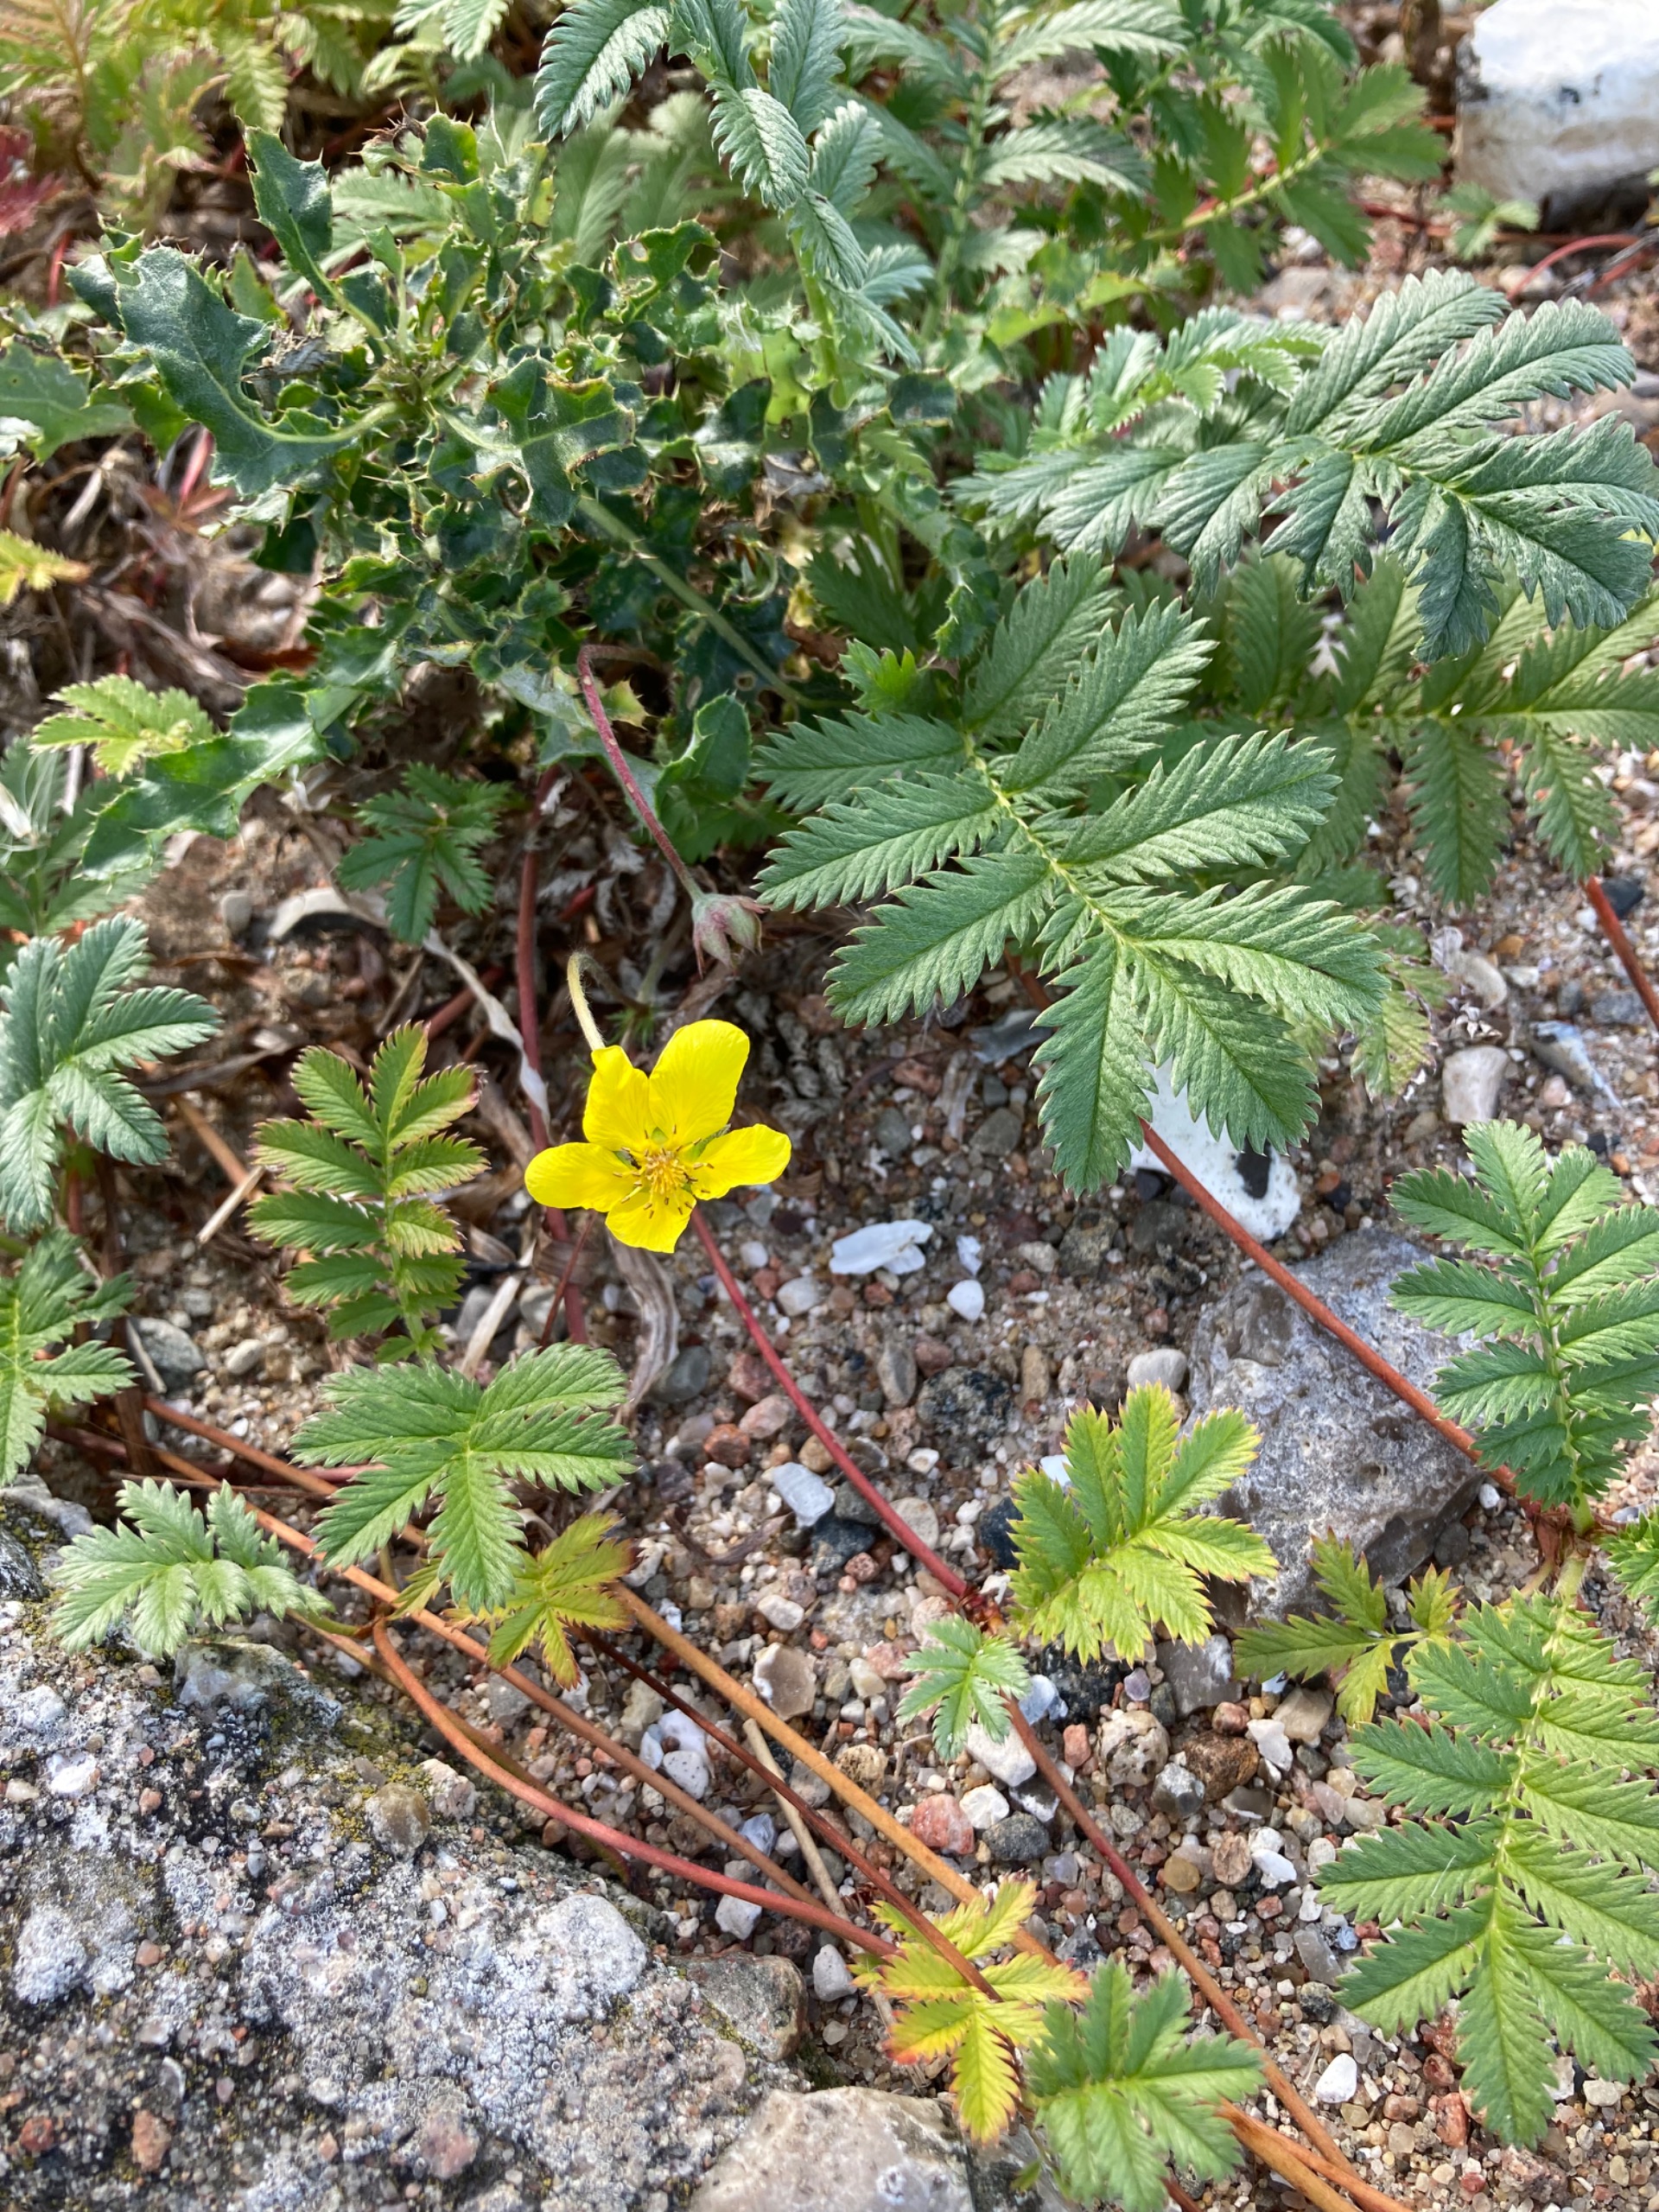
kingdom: Plantae
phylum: Tracheophyta
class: Magnoliopsida
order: Rosales
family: Rosaceae
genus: Argentina
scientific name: Argentina anserina
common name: Gåsepotentil
